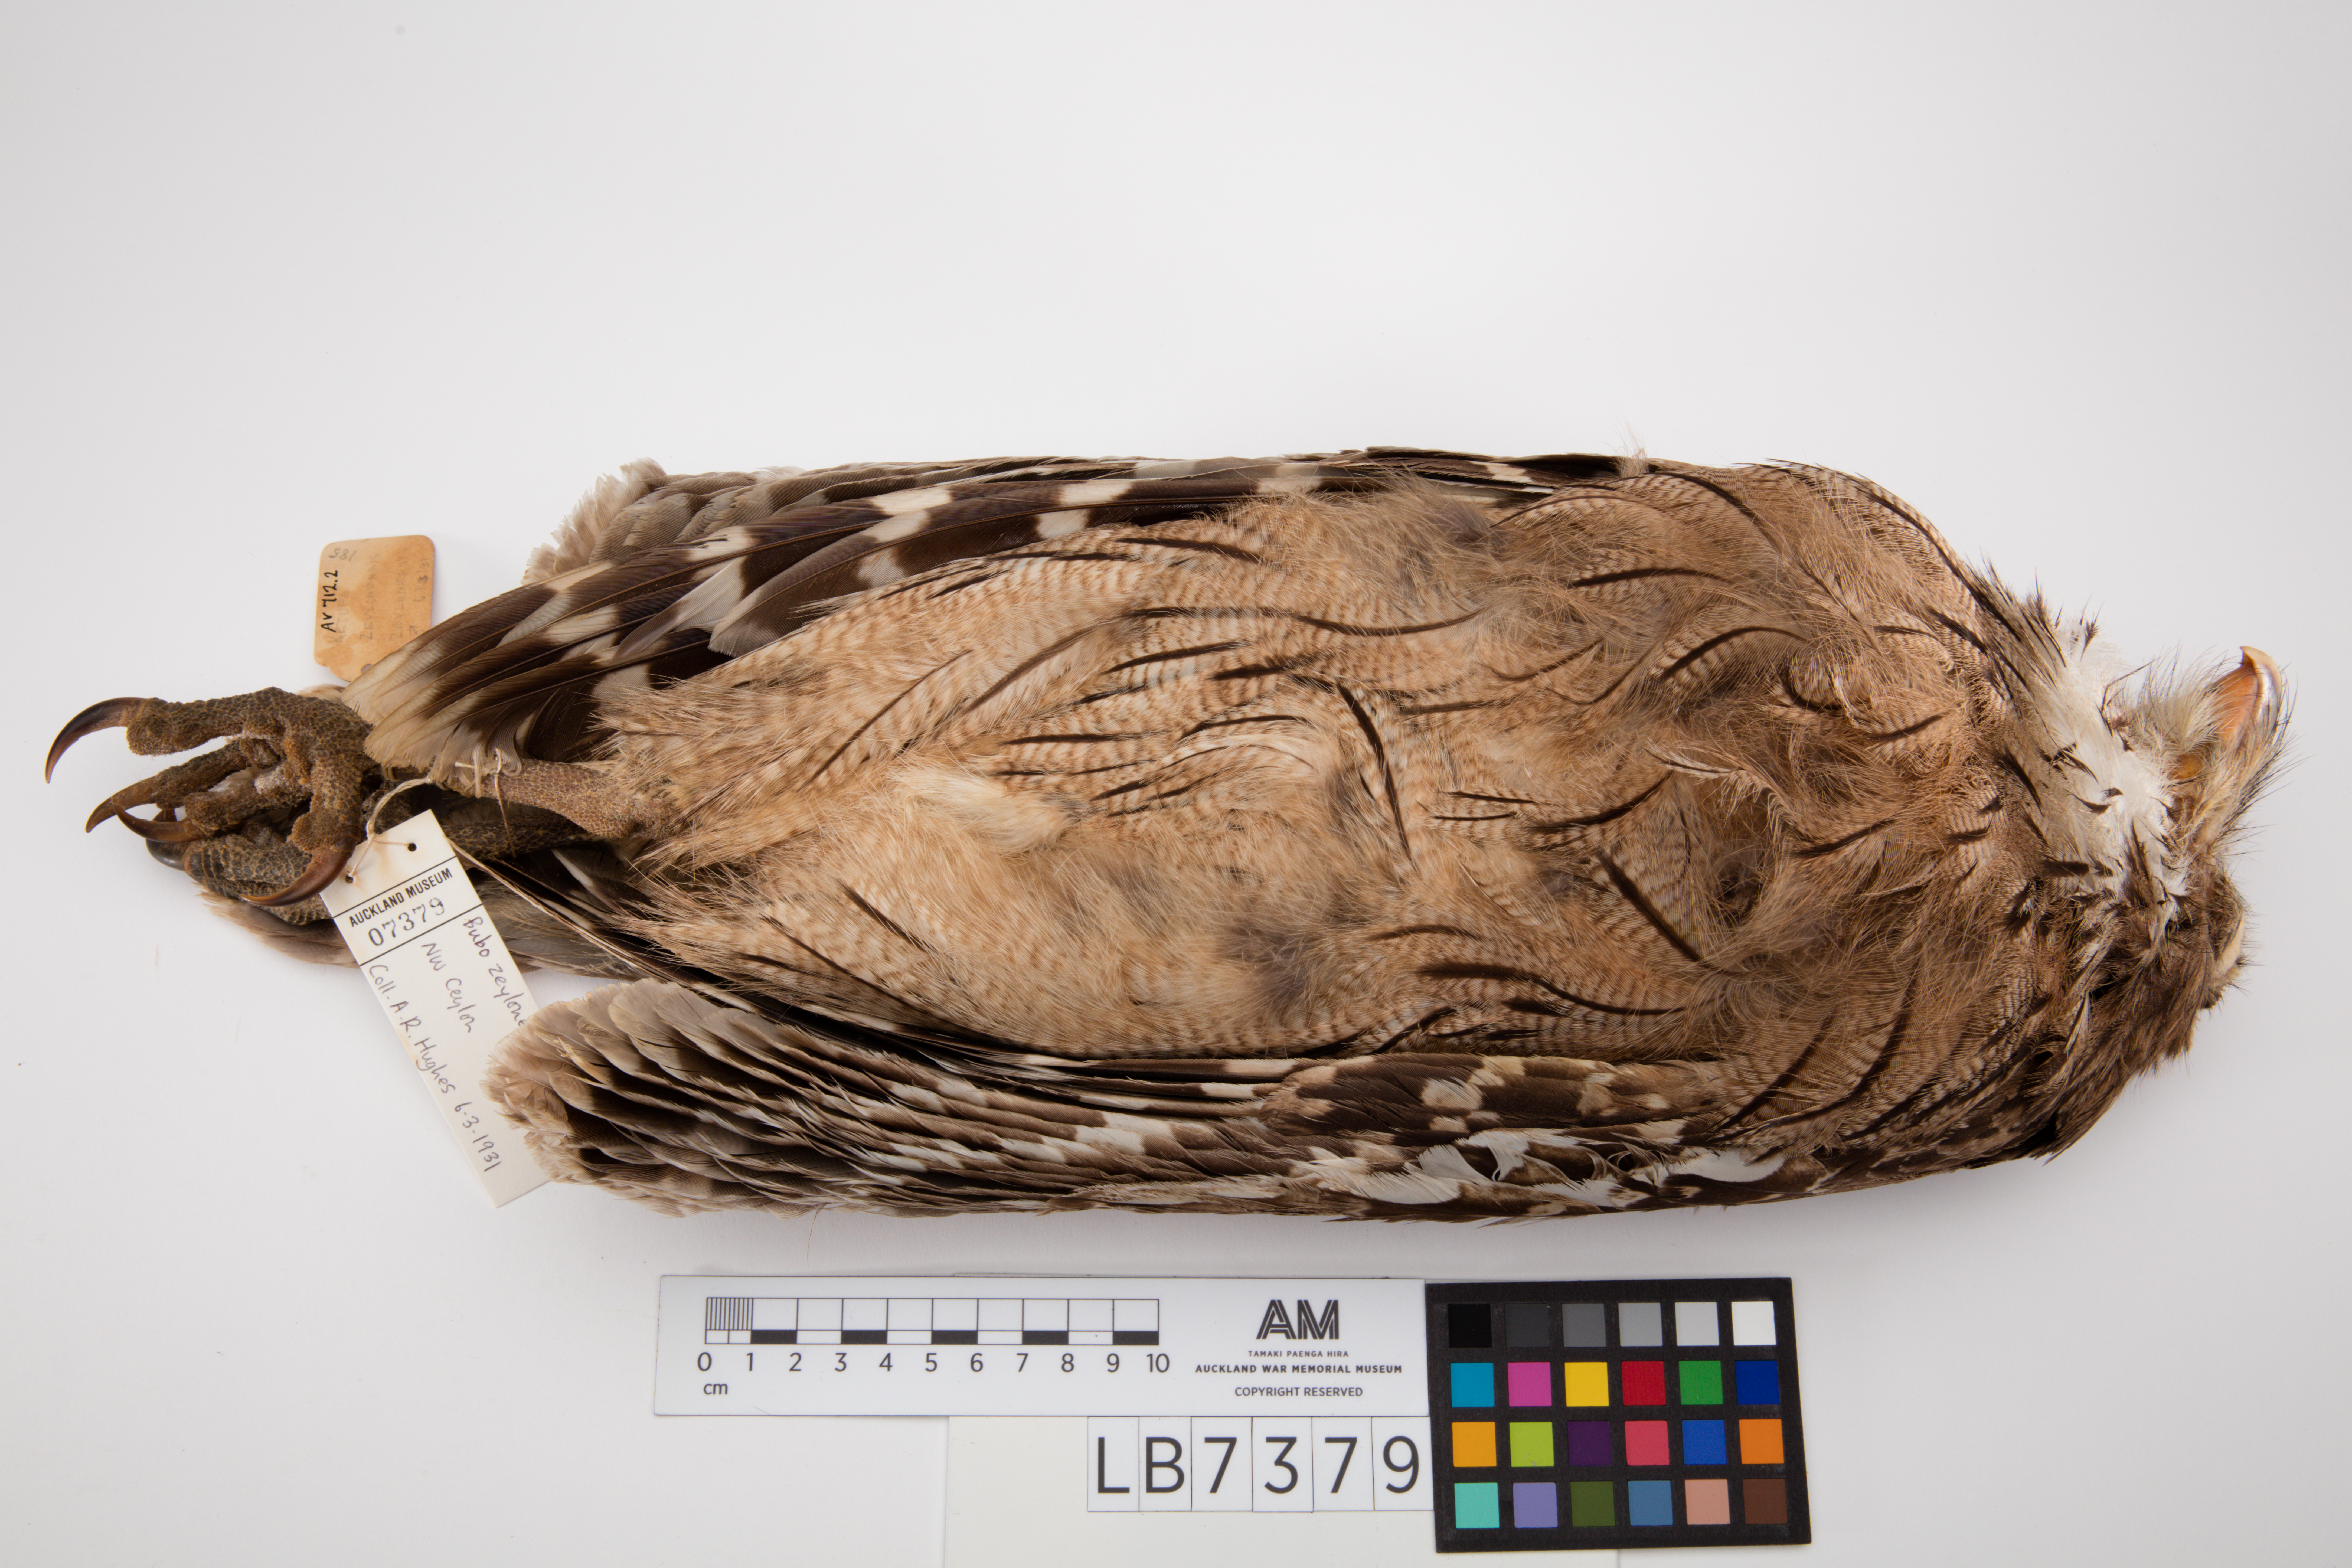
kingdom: Animalia
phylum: Chordata
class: Aves
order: Strigiformes
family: Strigidae
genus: Ketupa
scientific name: Ketupa zeylonensis
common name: Brown fish owl
